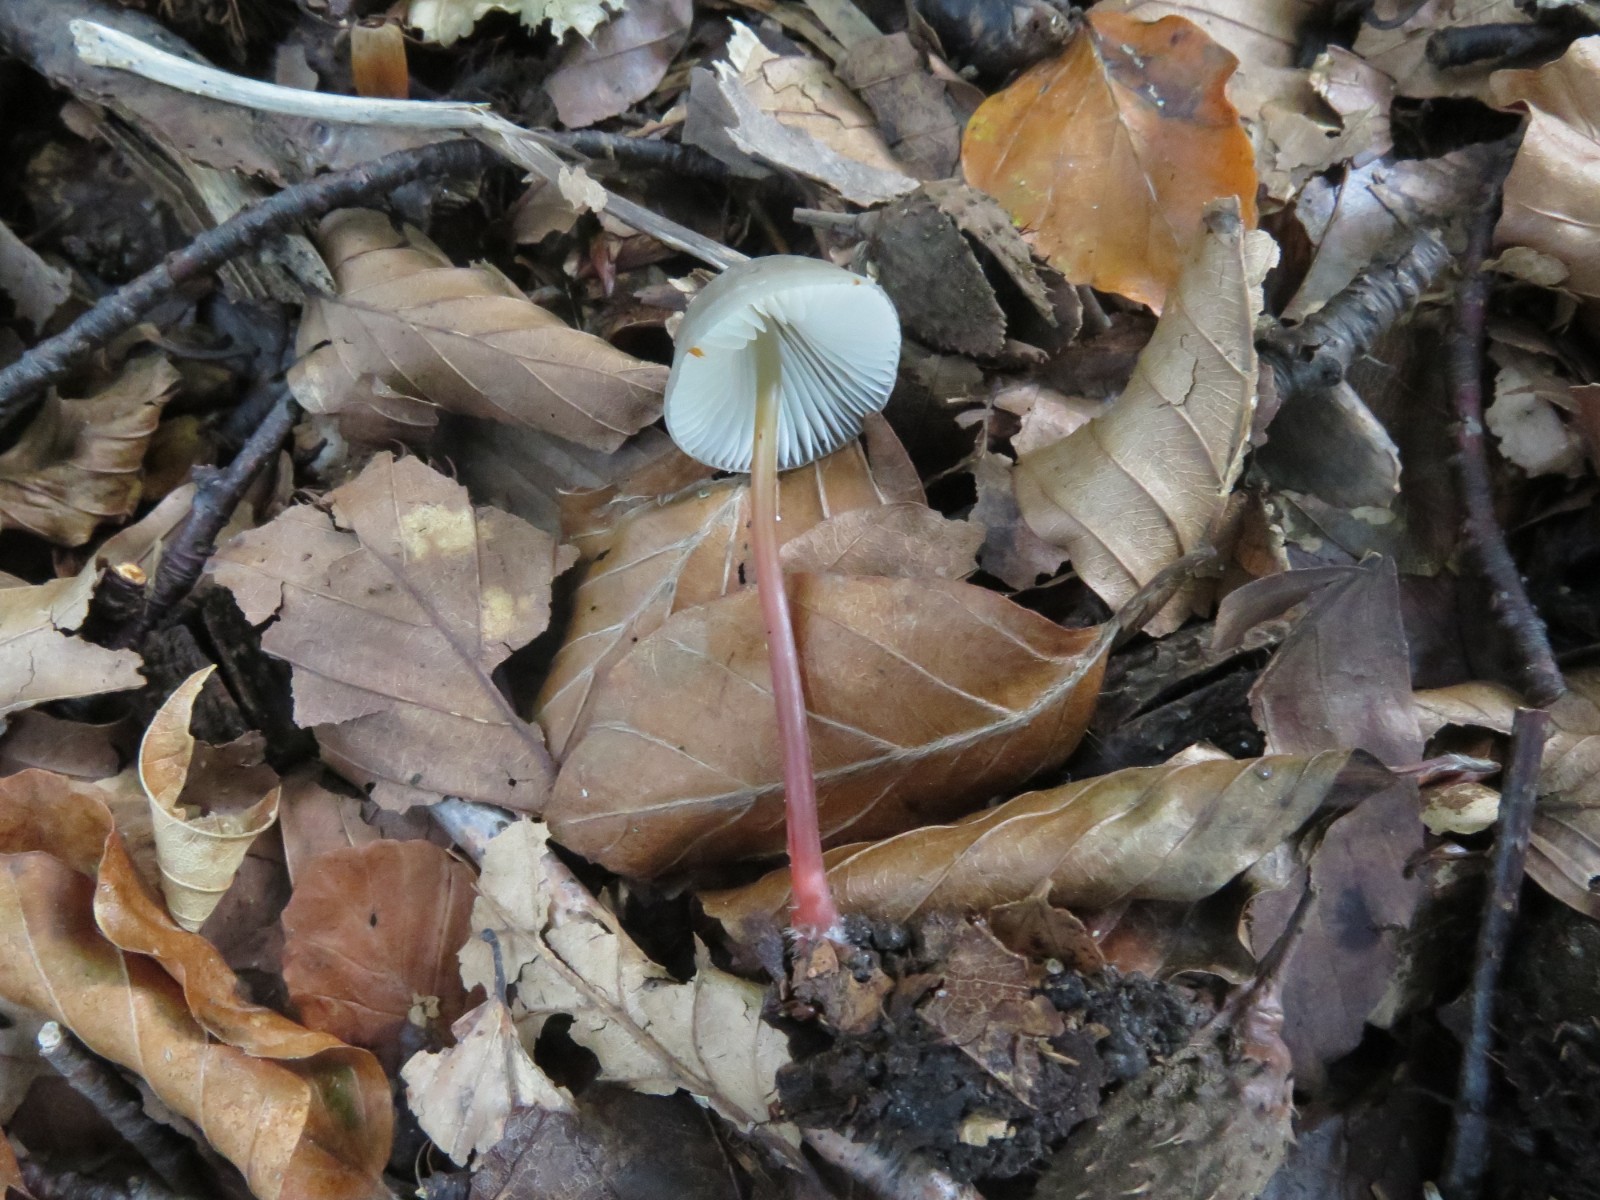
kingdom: Fungi
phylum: Basidiomycota
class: Agaricomycetes
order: Agaricales
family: Mycenaceae
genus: Mycena
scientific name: Mycena sanguinolenta
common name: rødmælket huesvamp
